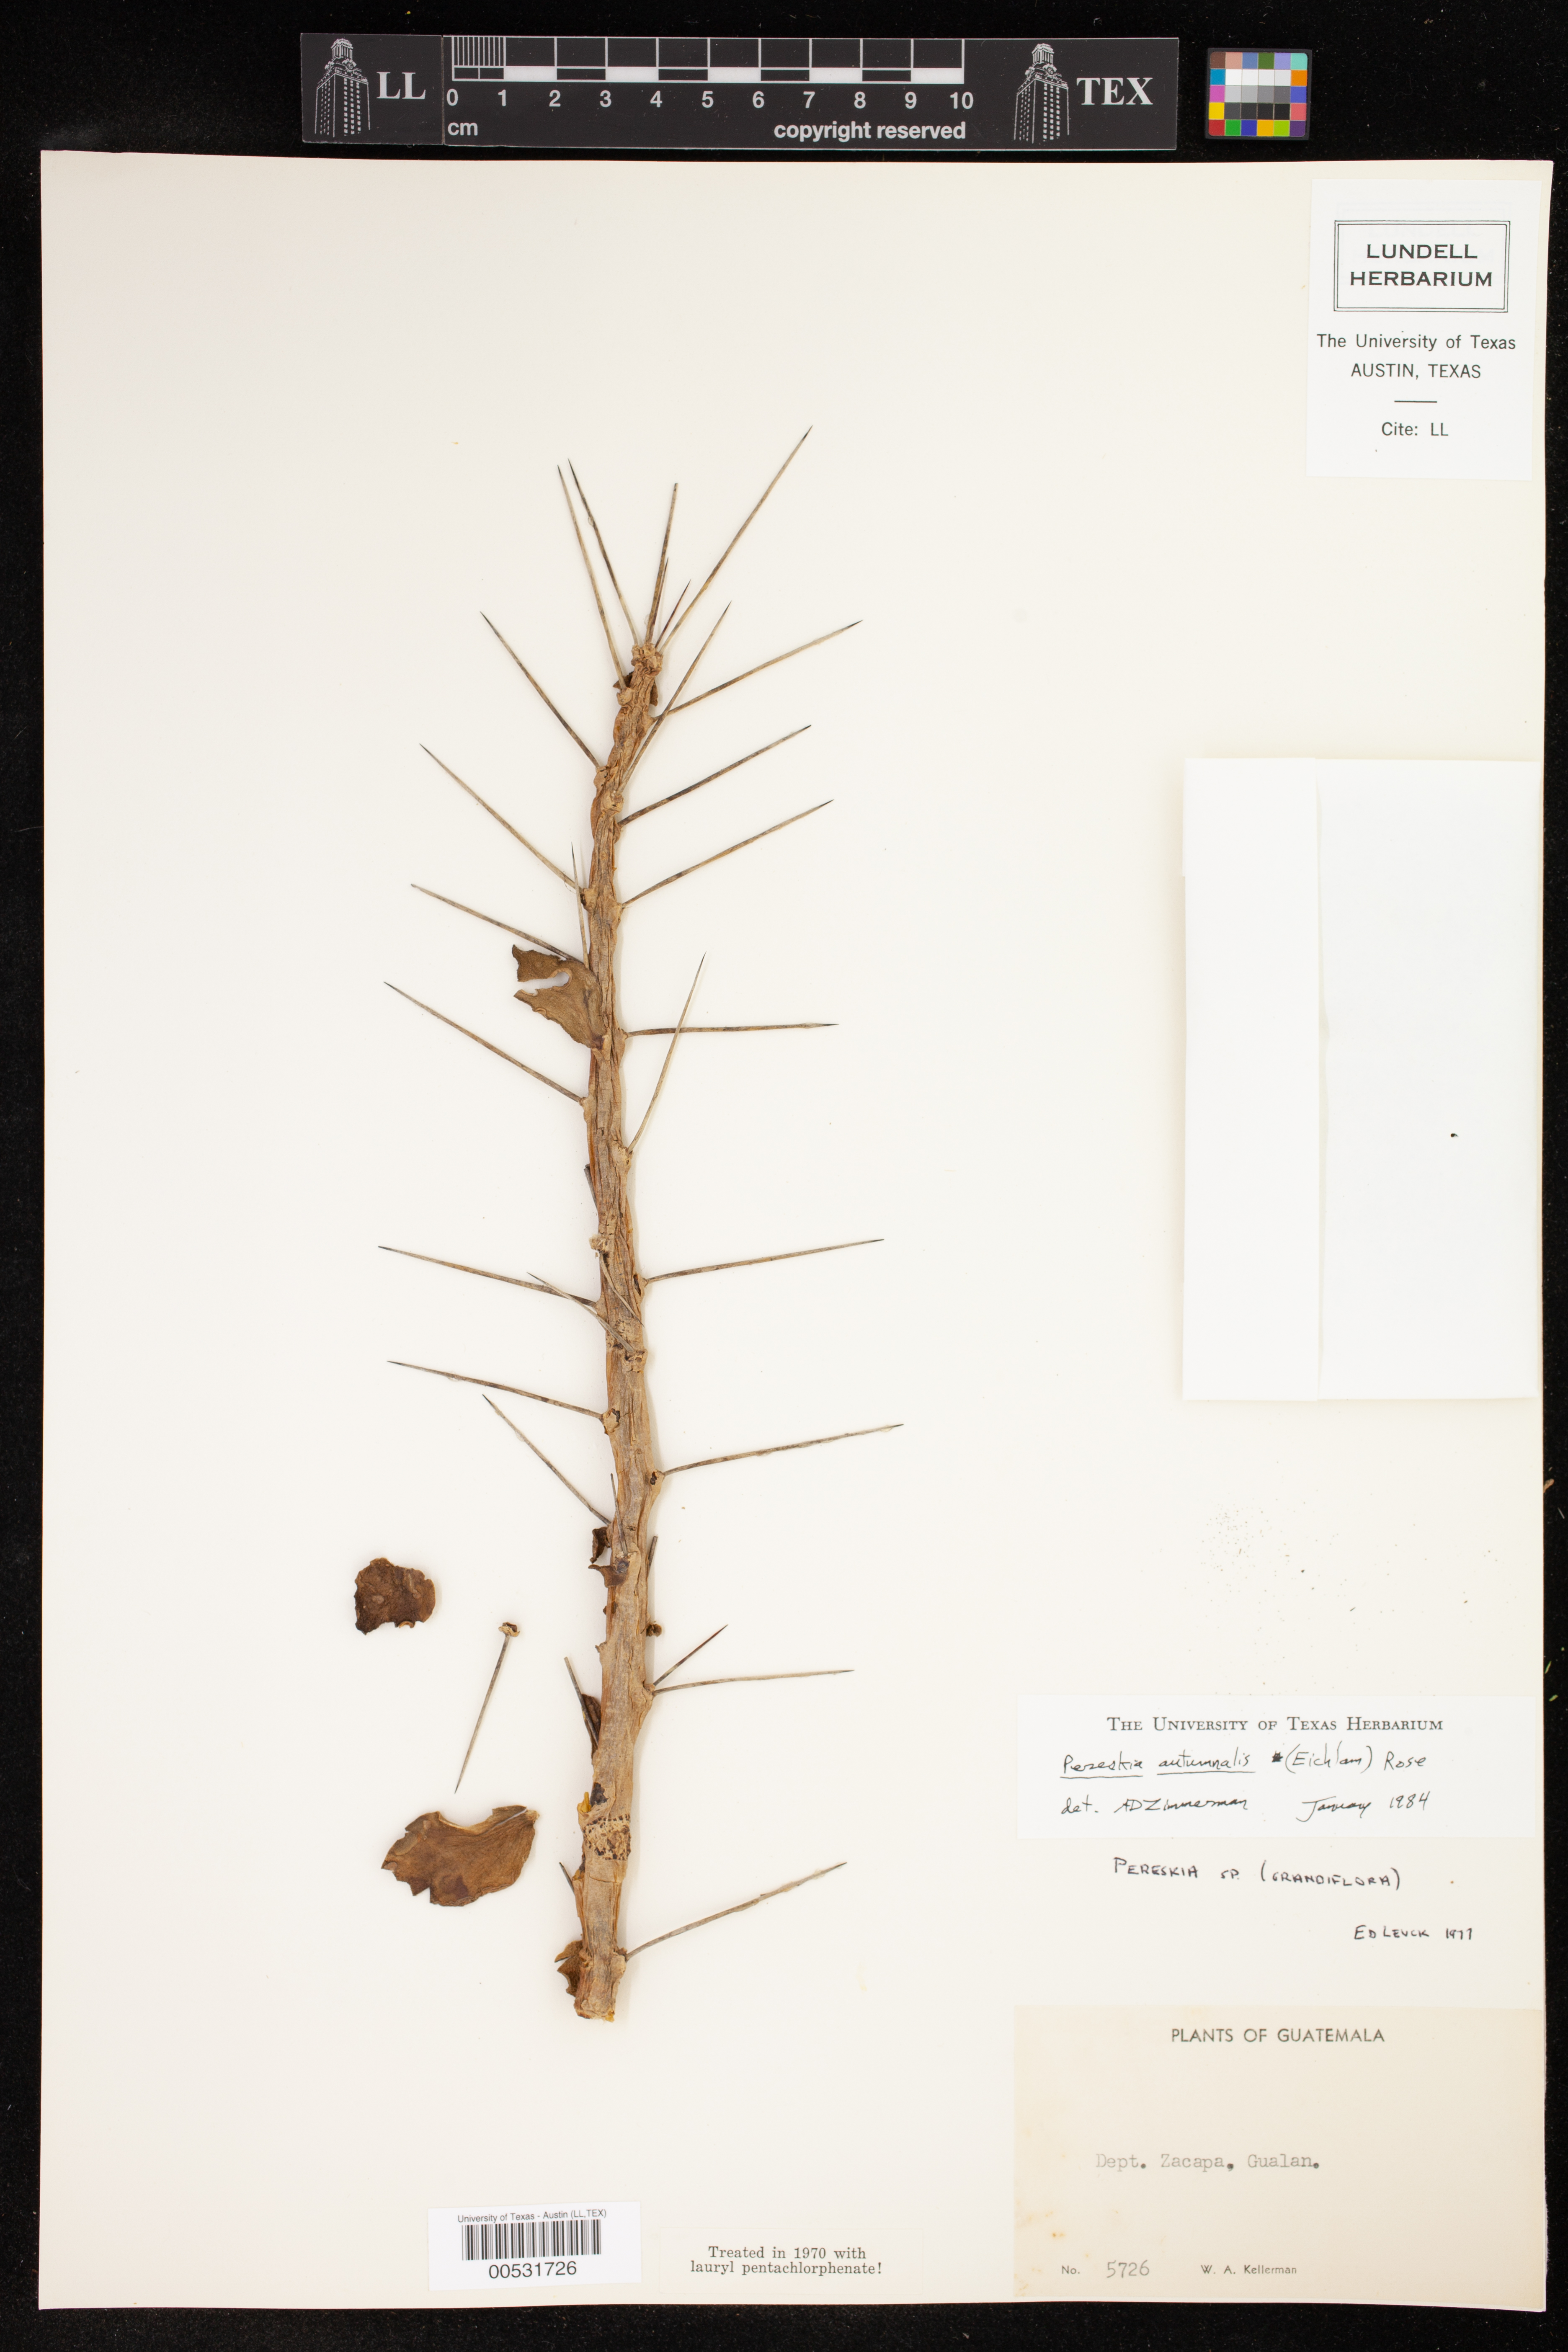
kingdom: Plantae
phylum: Tracheophyta
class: Magnoliopsida
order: Caryophyllales
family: Cactaceae
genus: Leuenbergeria
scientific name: Leuenbergeria lychnidiflora
